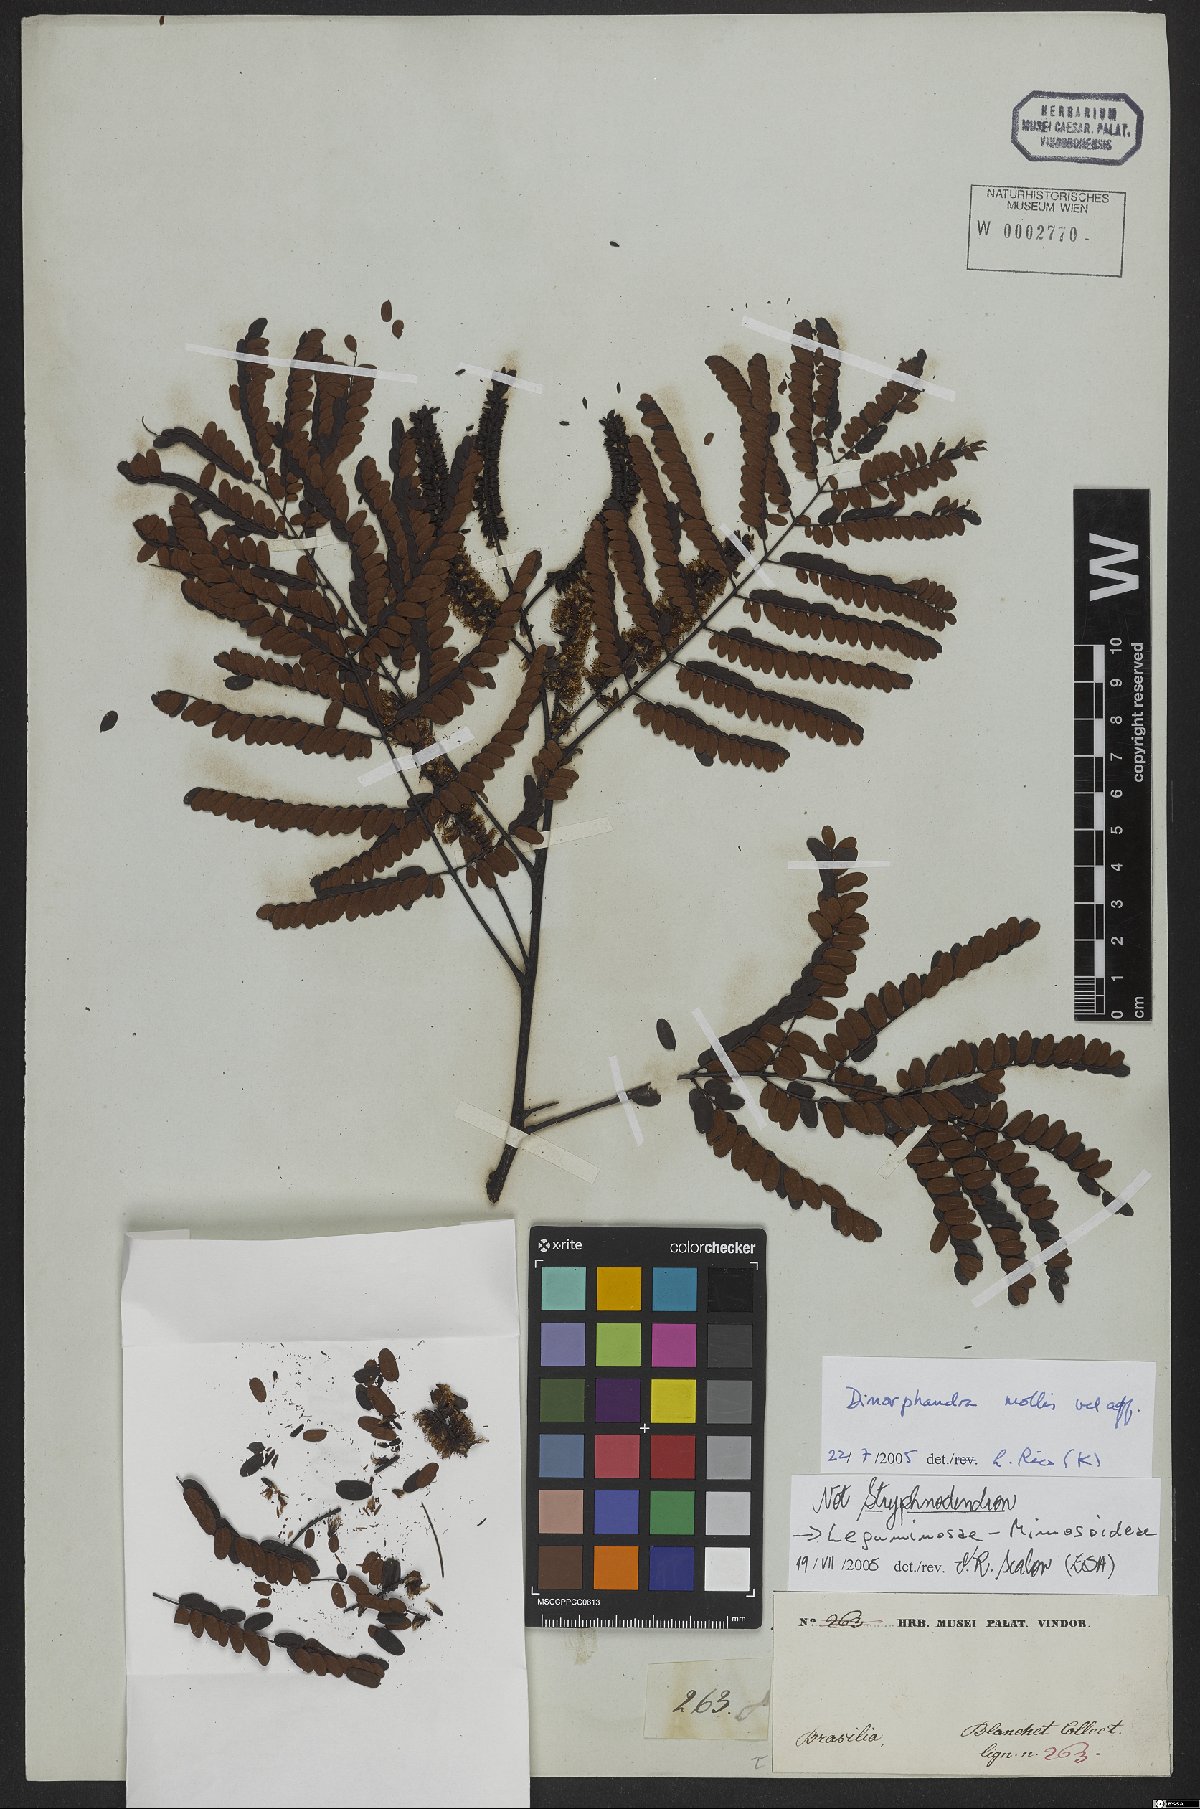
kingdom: Plantae
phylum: Tracheophyta
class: Magnoliopsida
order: Fabales
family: Fabaceae
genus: Dimorphandra
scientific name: Dimorphandra mollis
